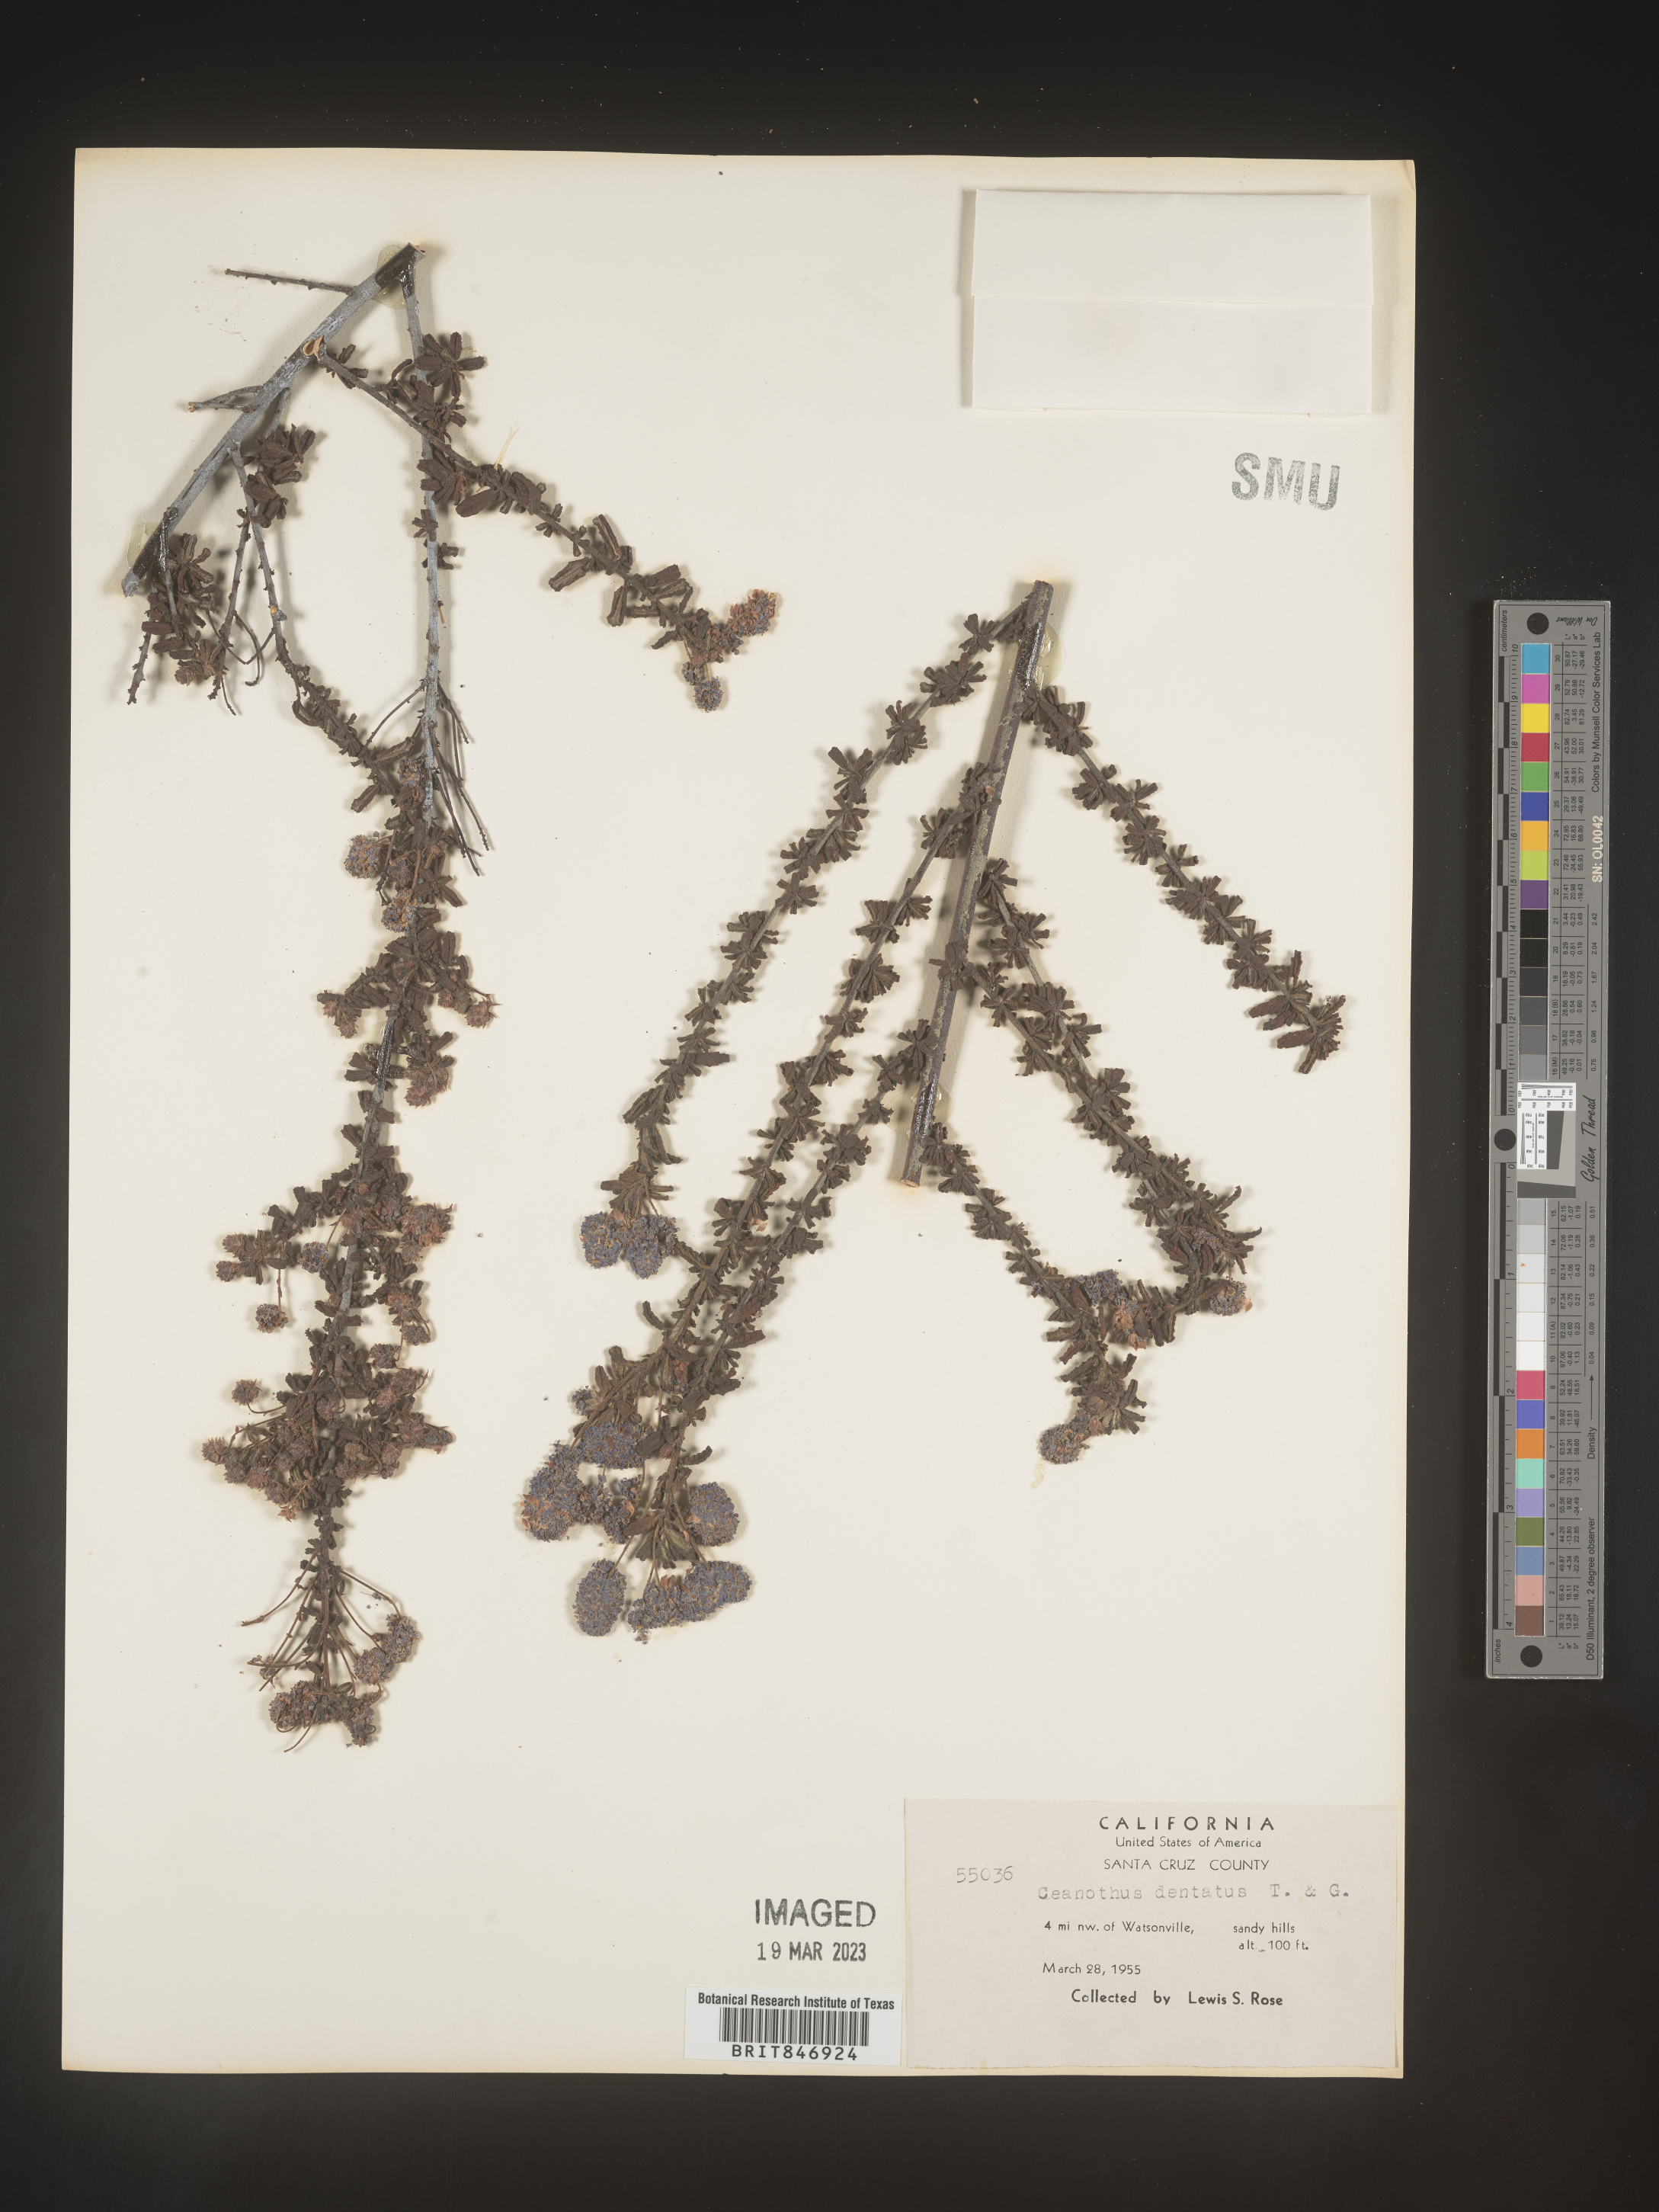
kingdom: Plantae
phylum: Tracheophyta
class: Magnoliopsida
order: Rosales
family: Rhamnaceae
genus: Ceanothus
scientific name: Ceanothus
